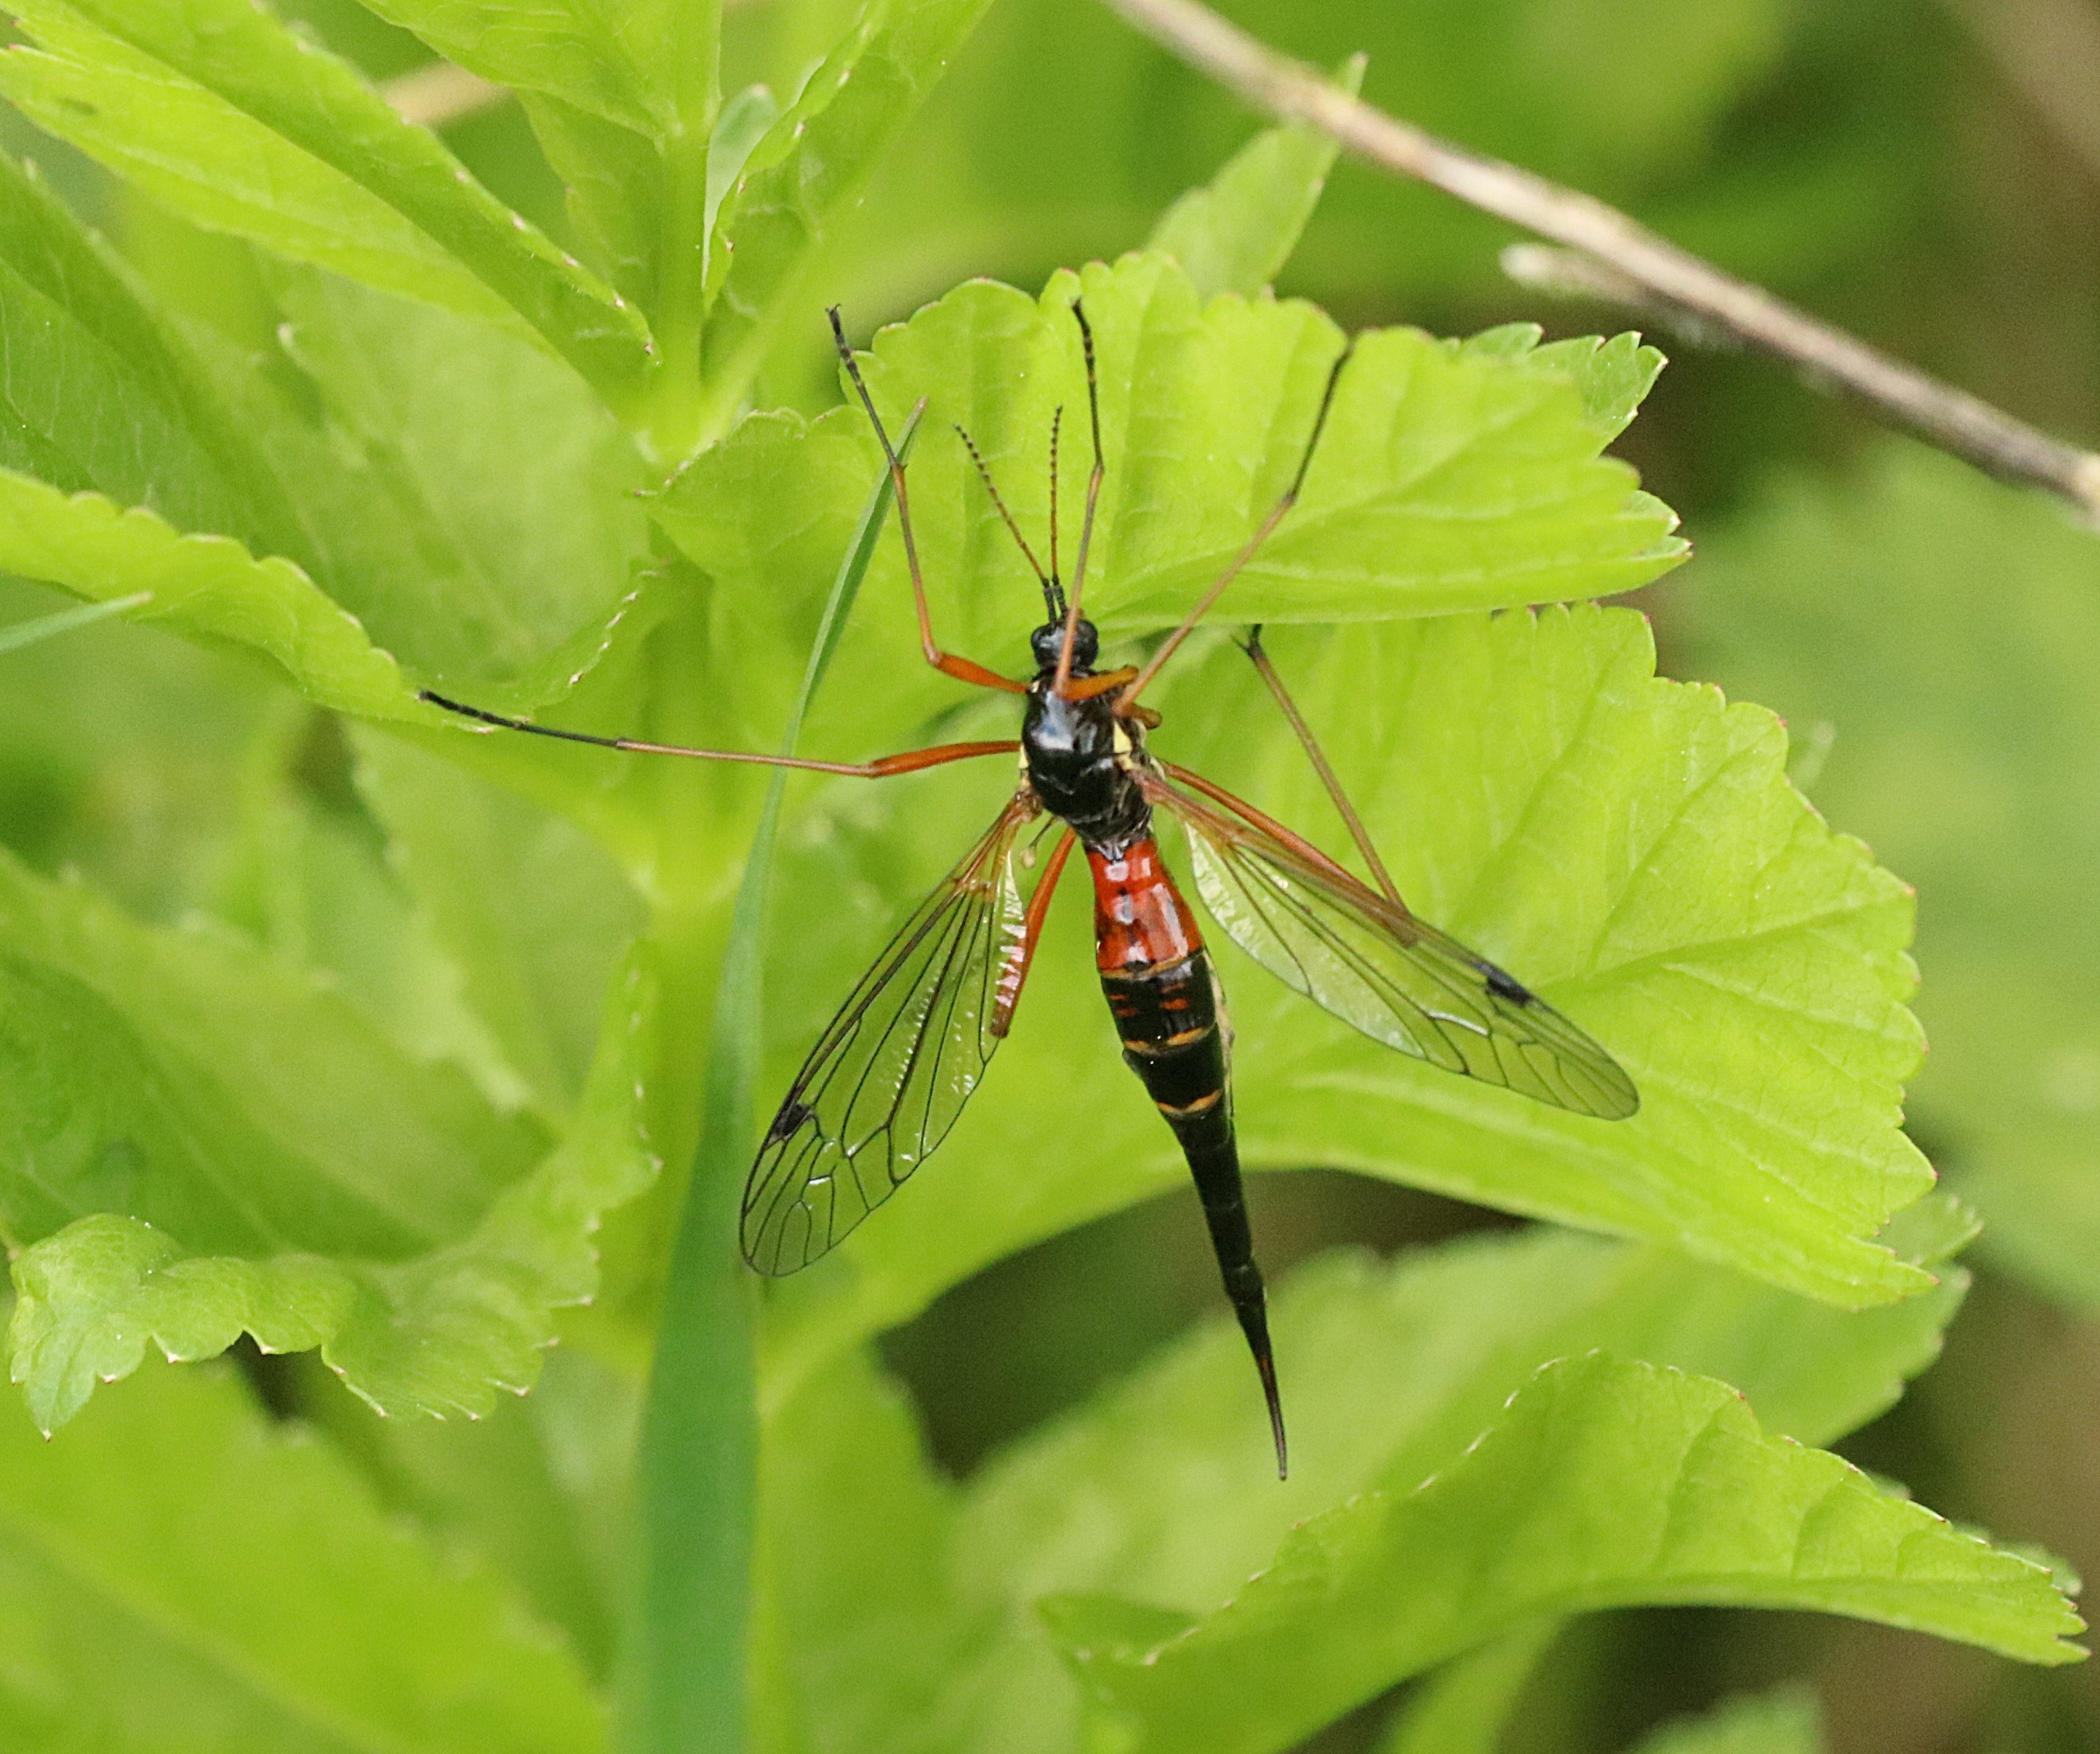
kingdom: Animalia
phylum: Arthropoda
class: Insecta
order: Diptera
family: Tipulidae
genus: Tanyptera
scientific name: Tanyptera atrata
